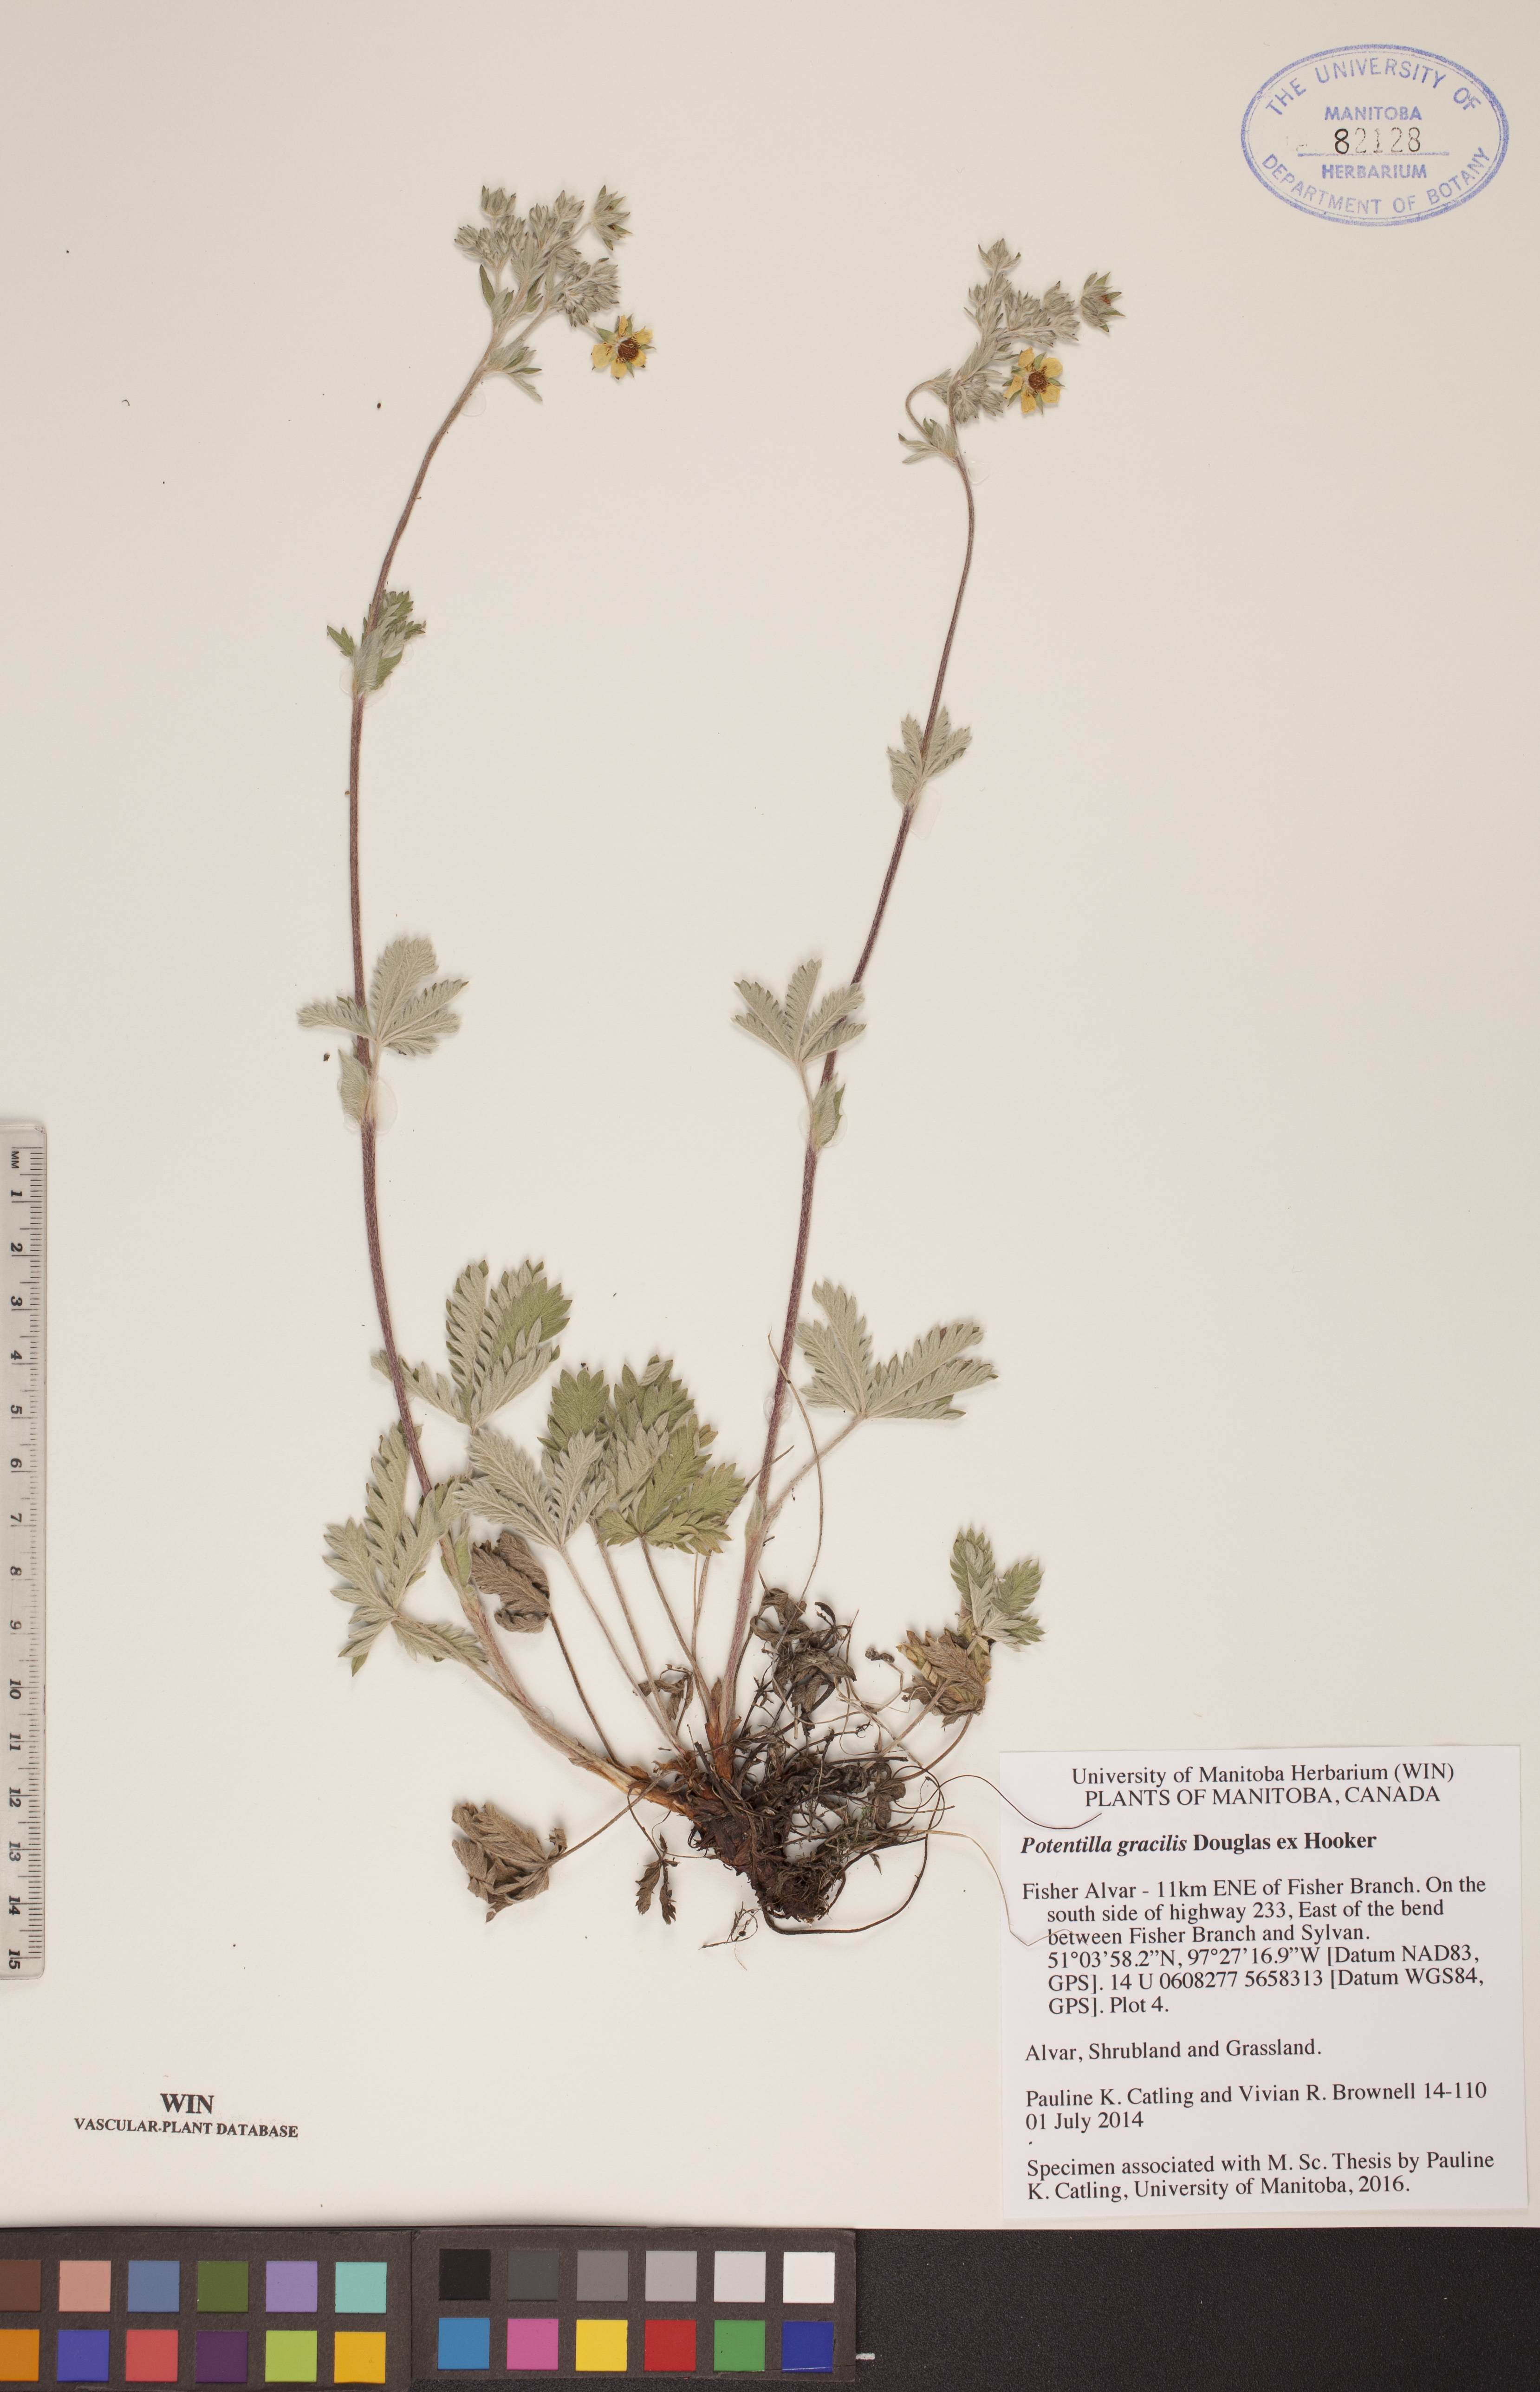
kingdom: Plantae
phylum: Tracheophyta
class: Magnoliopsida
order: Rosales
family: Rosaceae
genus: Potentilla
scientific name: Potentilla gracilis
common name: Graceful cinquefoil
